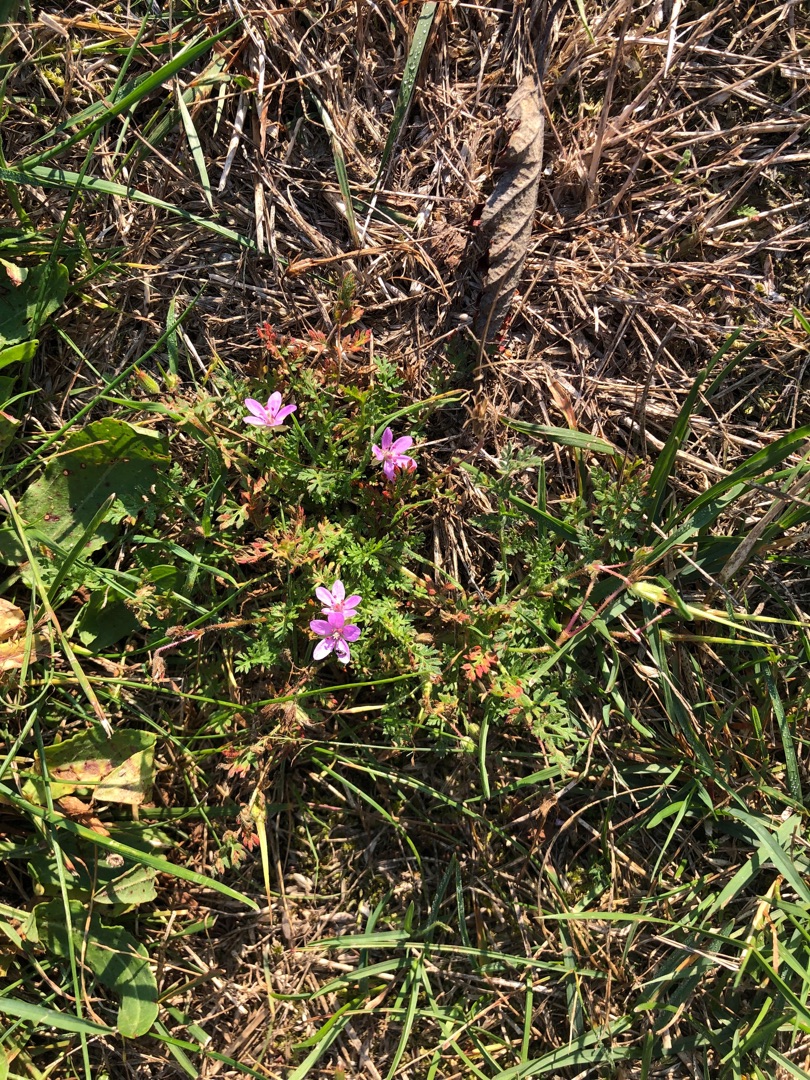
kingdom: Plantae
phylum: Tracheophyta
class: Magnoliopsida
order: Geraniales
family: Geraniaceae
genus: Erodium
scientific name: Erodium cicutarium
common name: Hejrenæb
